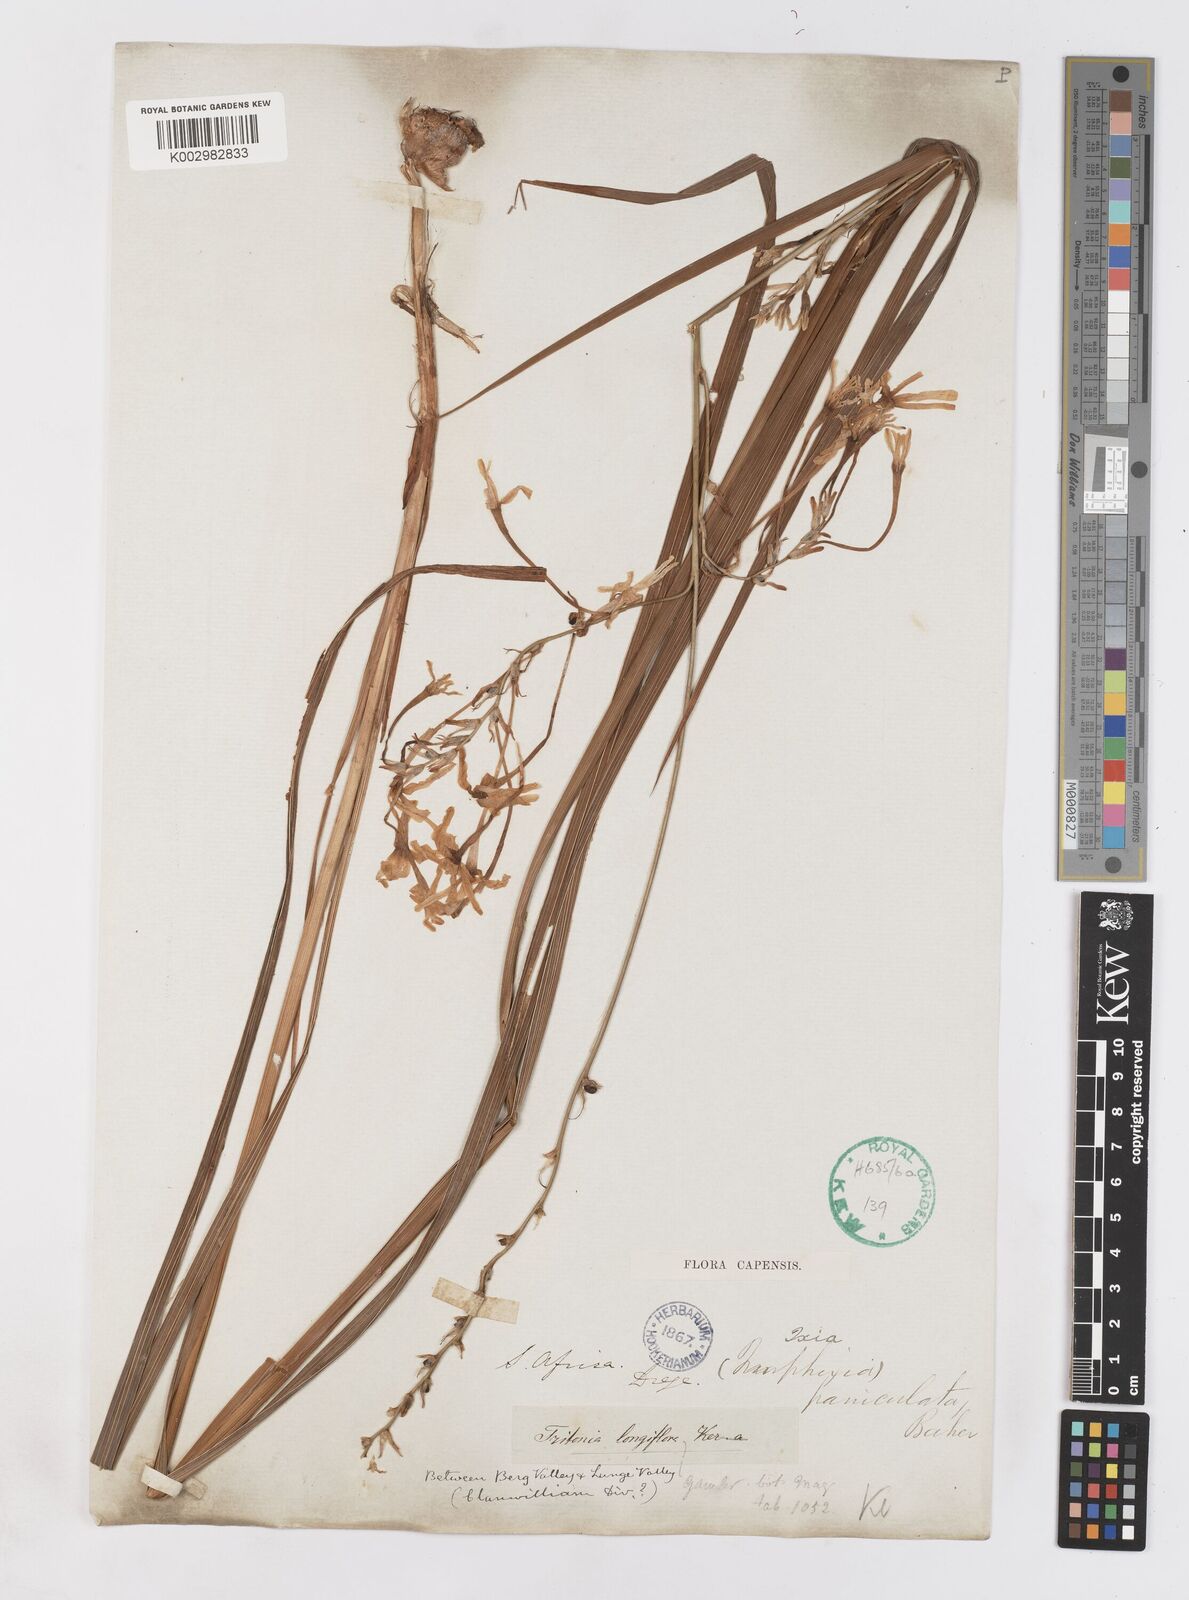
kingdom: Plantae
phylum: Tracheophyta
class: Liliopsida
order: Asparagales
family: Iridaceae
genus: Ixia
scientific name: Ixia paniculata
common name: Tubular corn-lily
